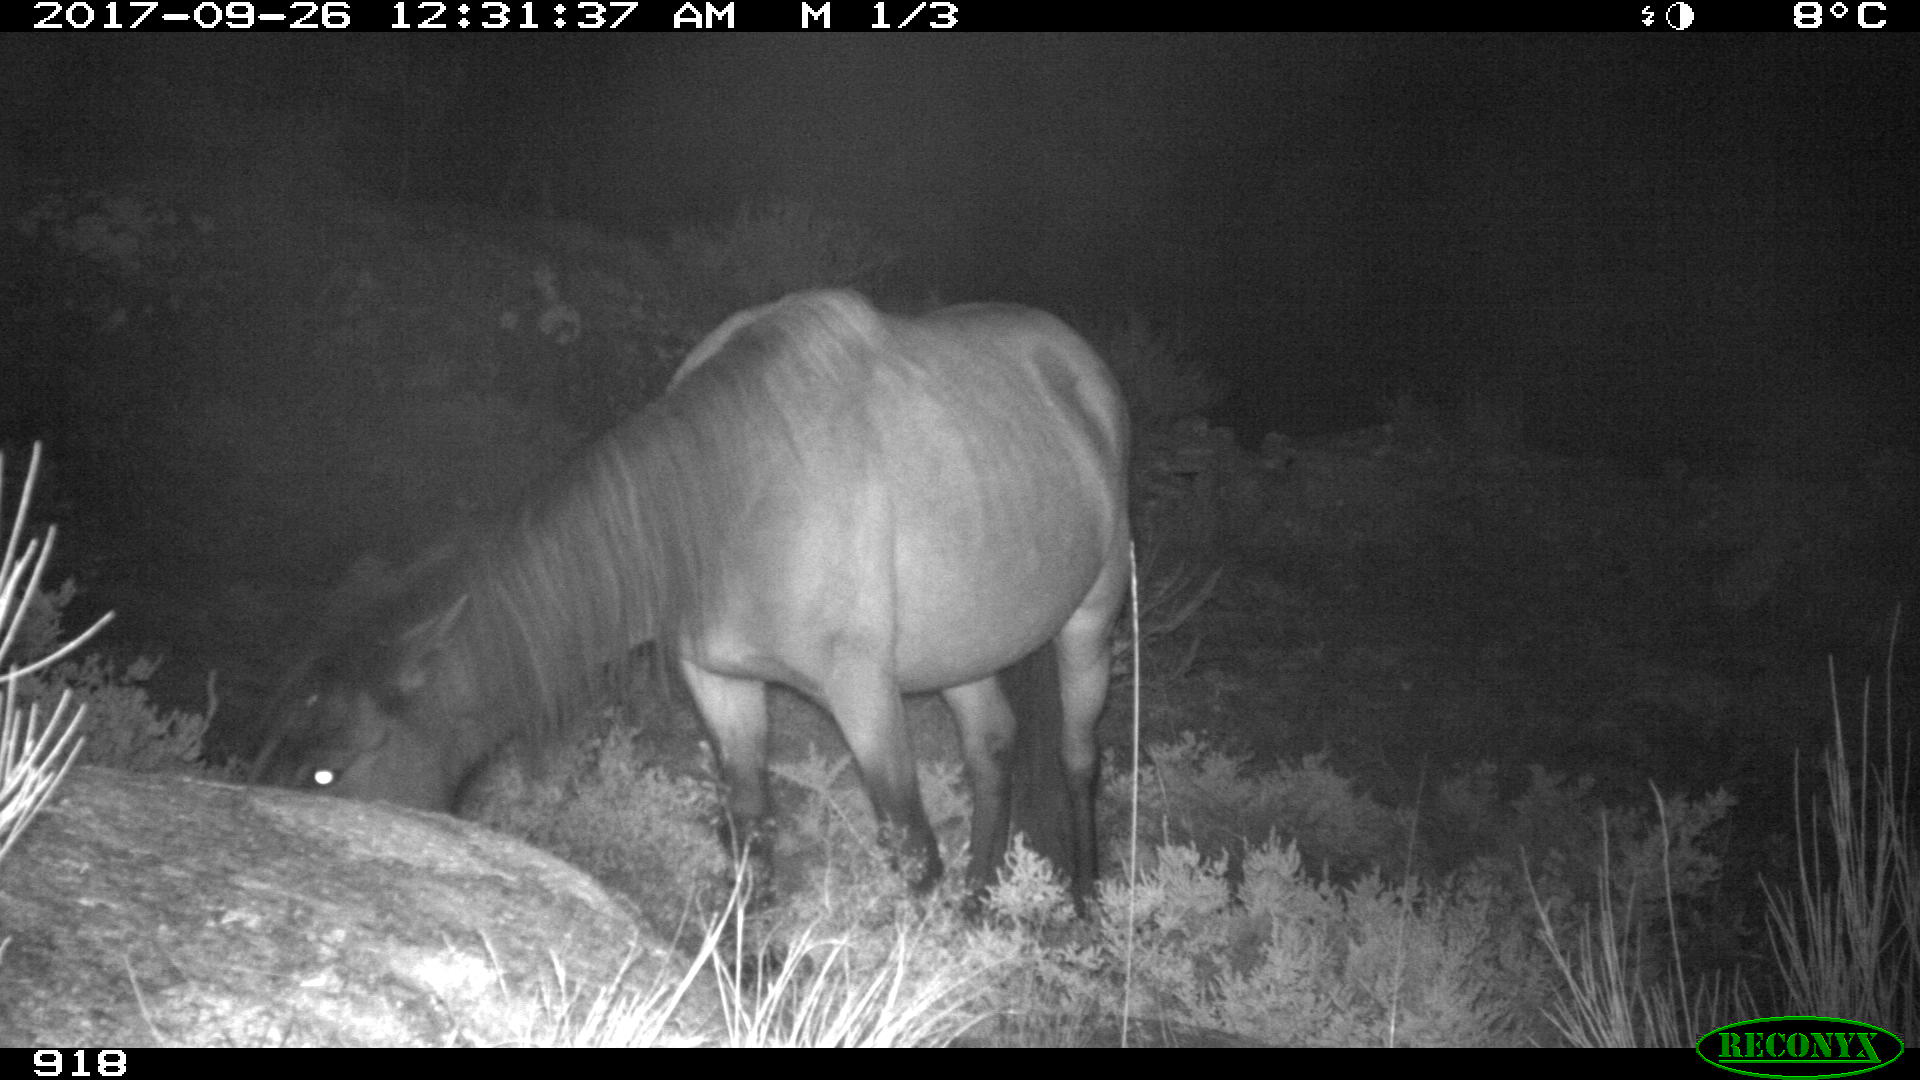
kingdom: Animalia
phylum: Chordata
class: Mammalia
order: Perissodactyla
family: Equidae
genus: Equus
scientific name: Equus caballus
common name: Horse
